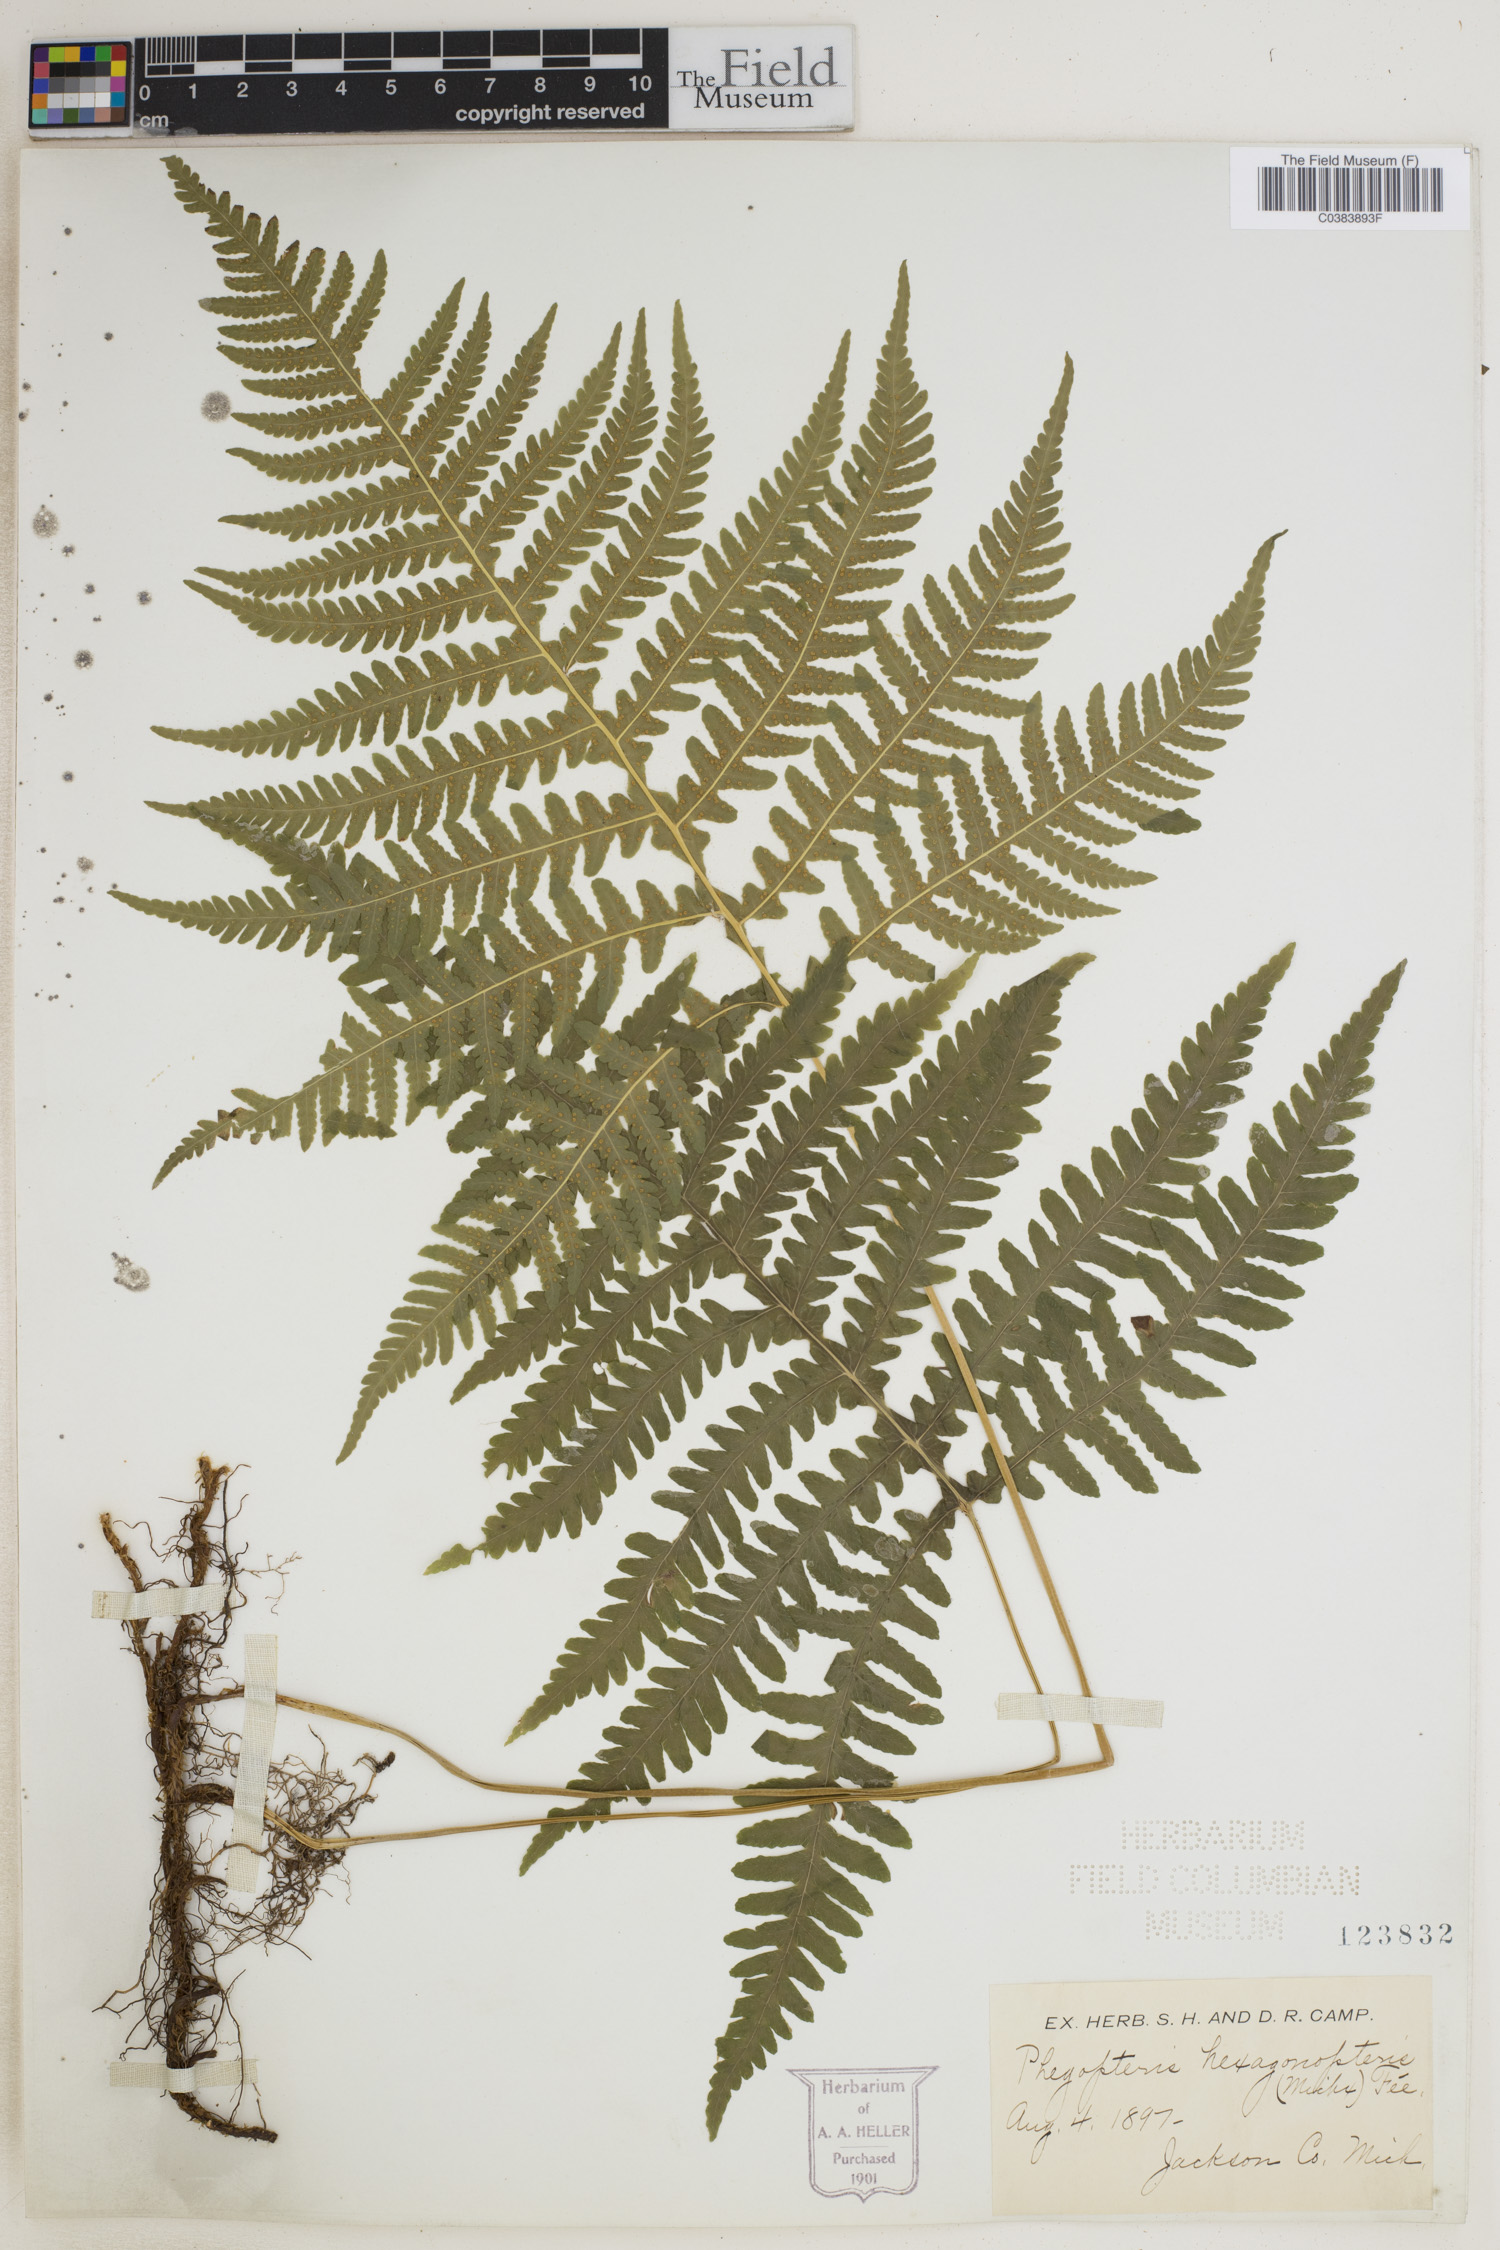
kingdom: Plantae
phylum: Tracheophyta
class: Polypodiopsida
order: Polypodiales
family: Thelypteridaceae
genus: Phegopteris
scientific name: Phegopteris hexagonoptera
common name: Broad beech fern
